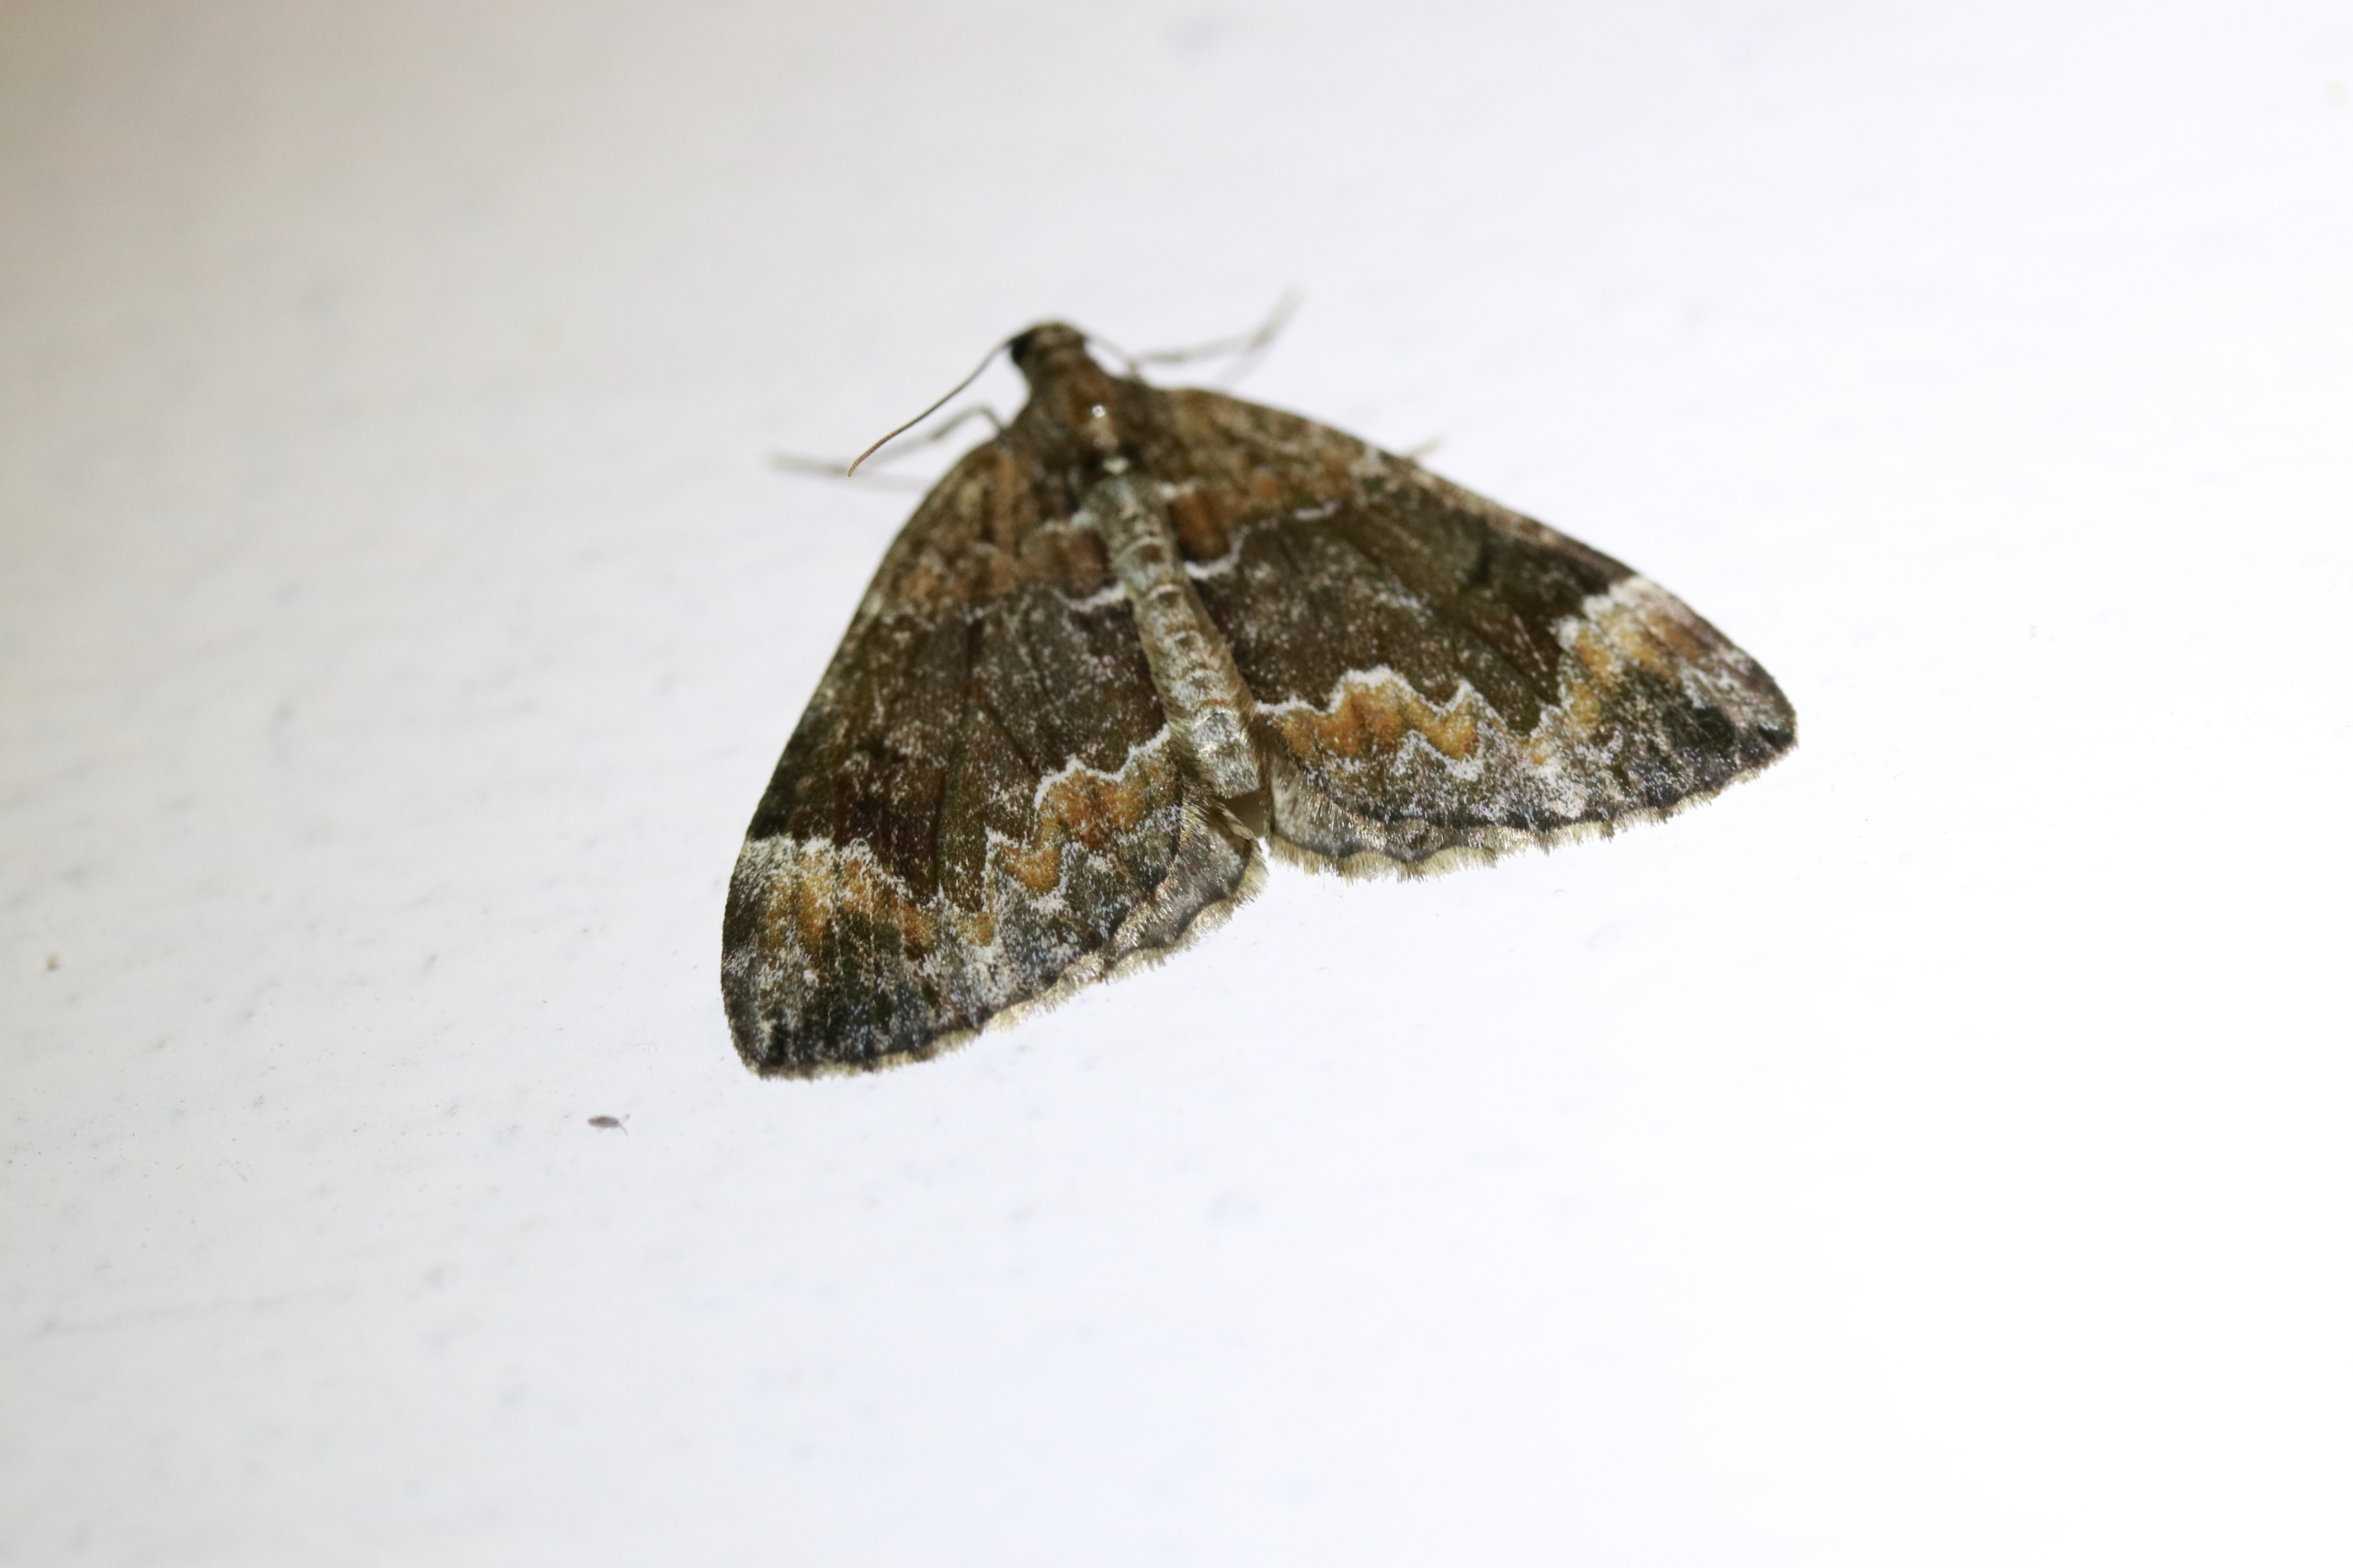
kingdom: Animalia
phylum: Arthropoda
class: Insecta
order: Lepidoptera
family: Geometridae
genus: Dysstroma
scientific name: Dysstroma citrata
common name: Spidsvinget bladmåler
